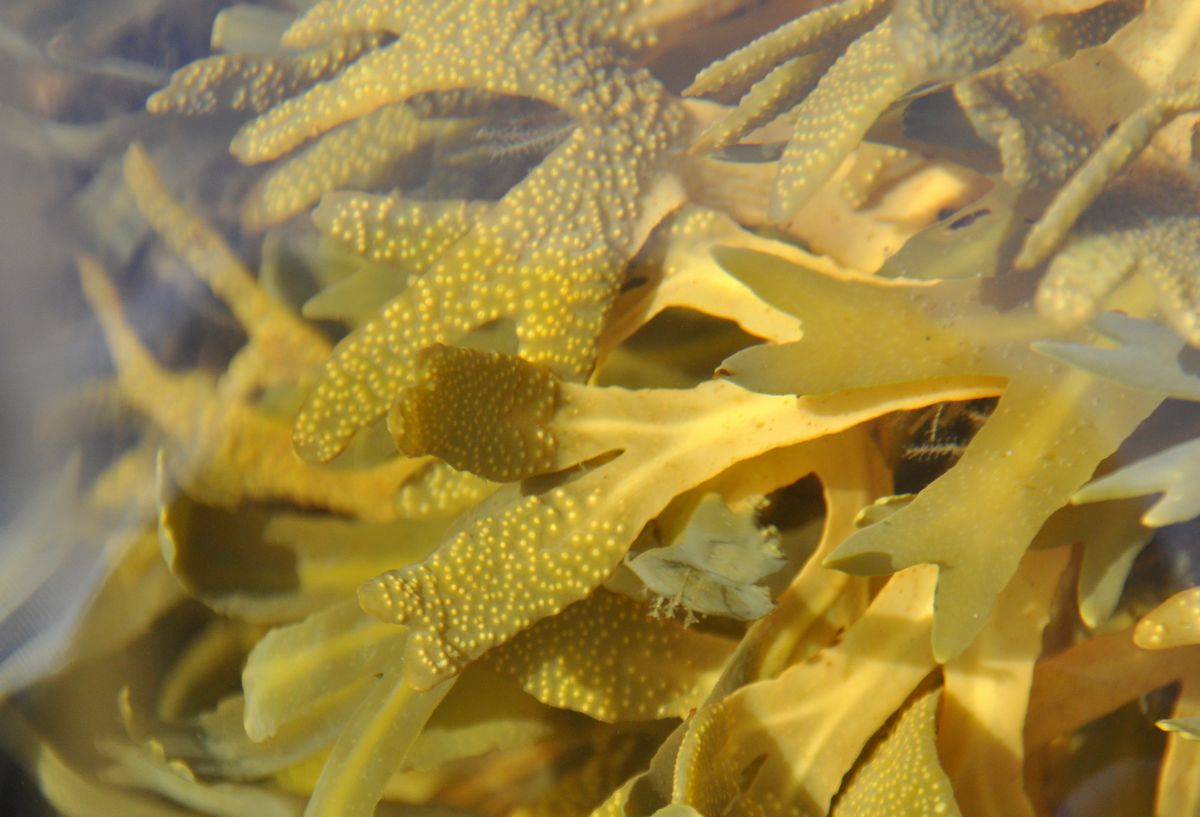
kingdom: Chromista
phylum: Ochrophyta
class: Phaeophyceae
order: Fucales
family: Fucaceae
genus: Fucus
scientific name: Fucus vesiculosus
